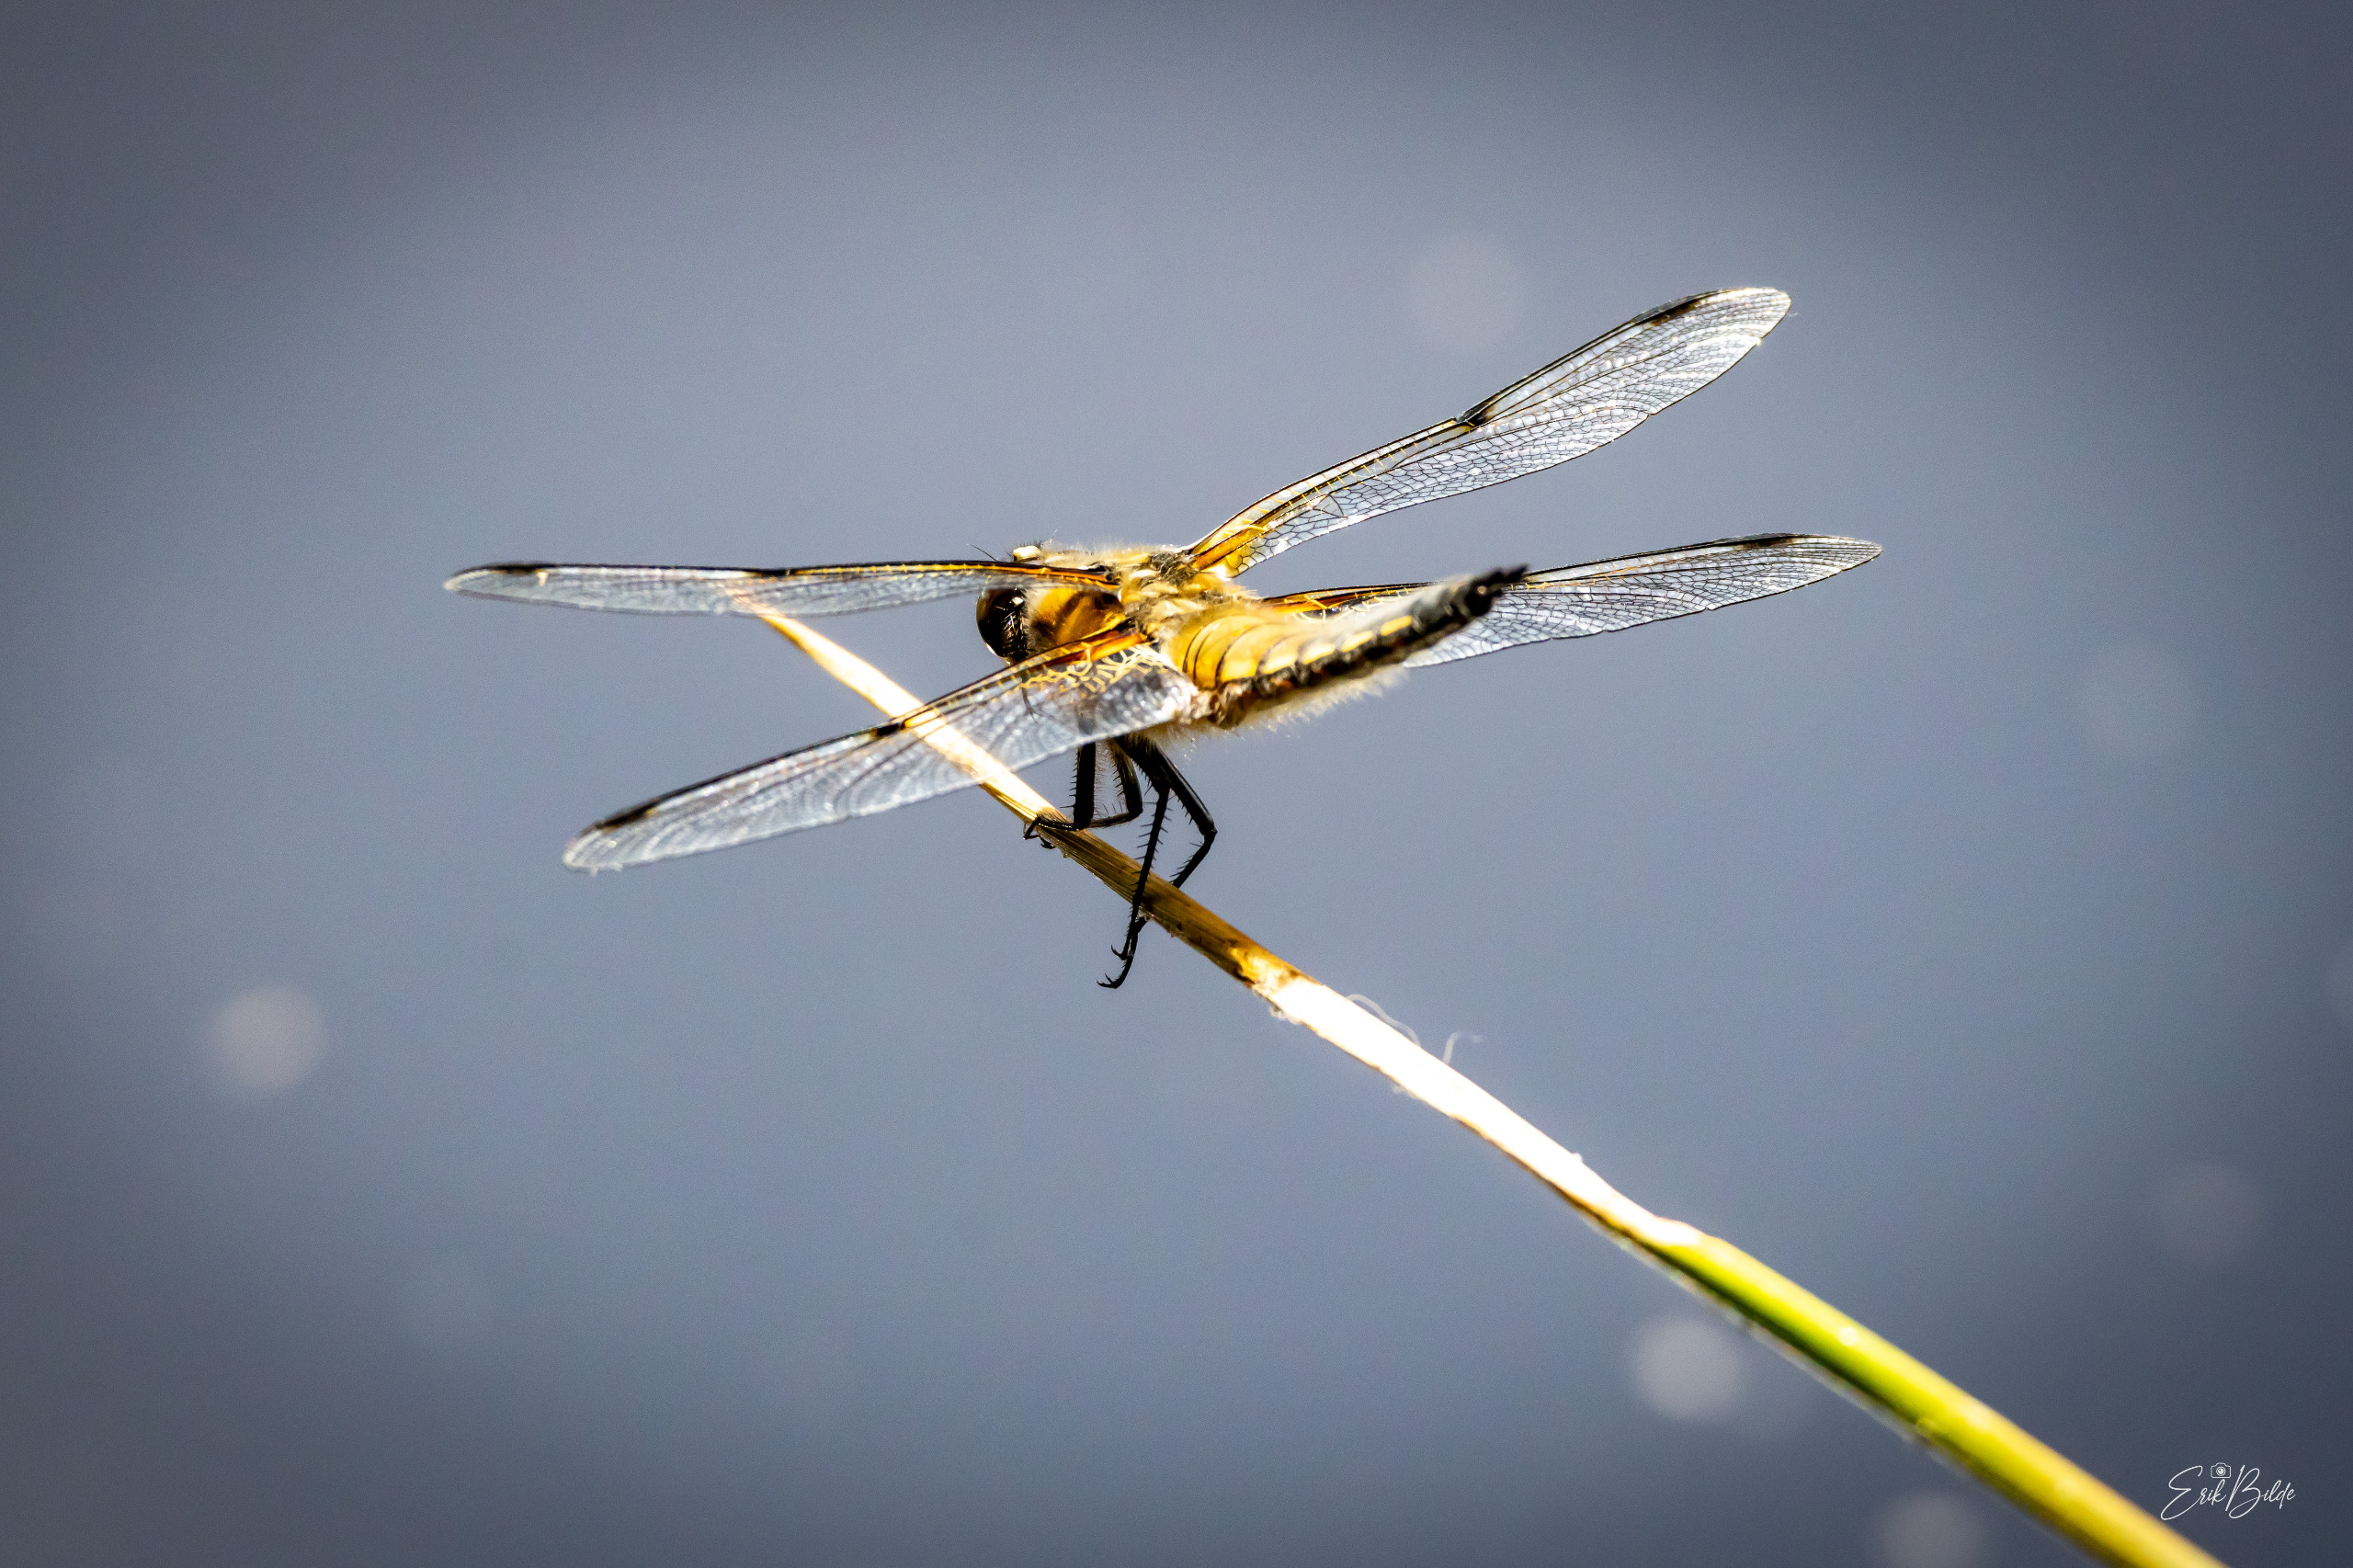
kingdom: Animalia
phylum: Arthropoda
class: Insecta
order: Odonata
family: Libellulidae
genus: Libellula
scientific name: Libellula quadrimaculata
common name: Fireplettet libel
